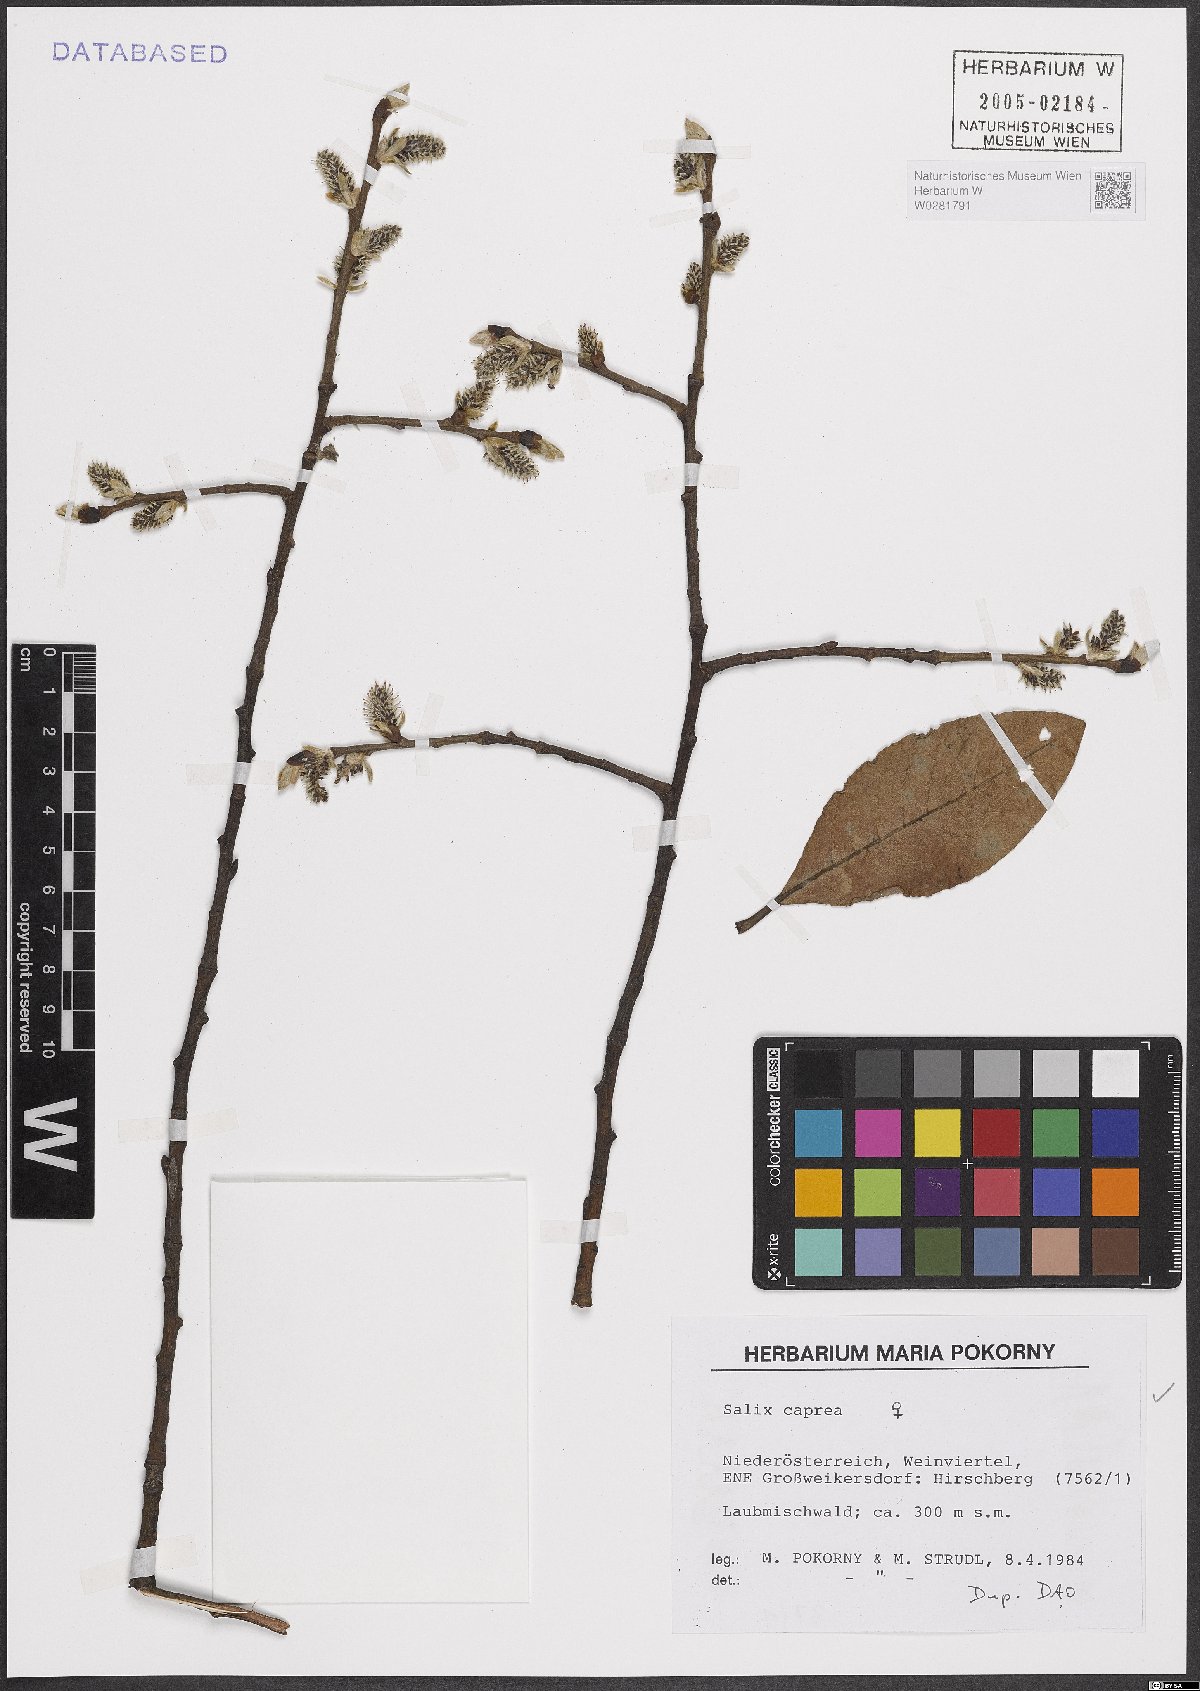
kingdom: Plantae
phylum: Tracheophyta
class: Magnoliopsida
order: Malpighiales
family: Salicaceae
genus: Salix
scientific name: Salix caprea
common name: Goat willow
